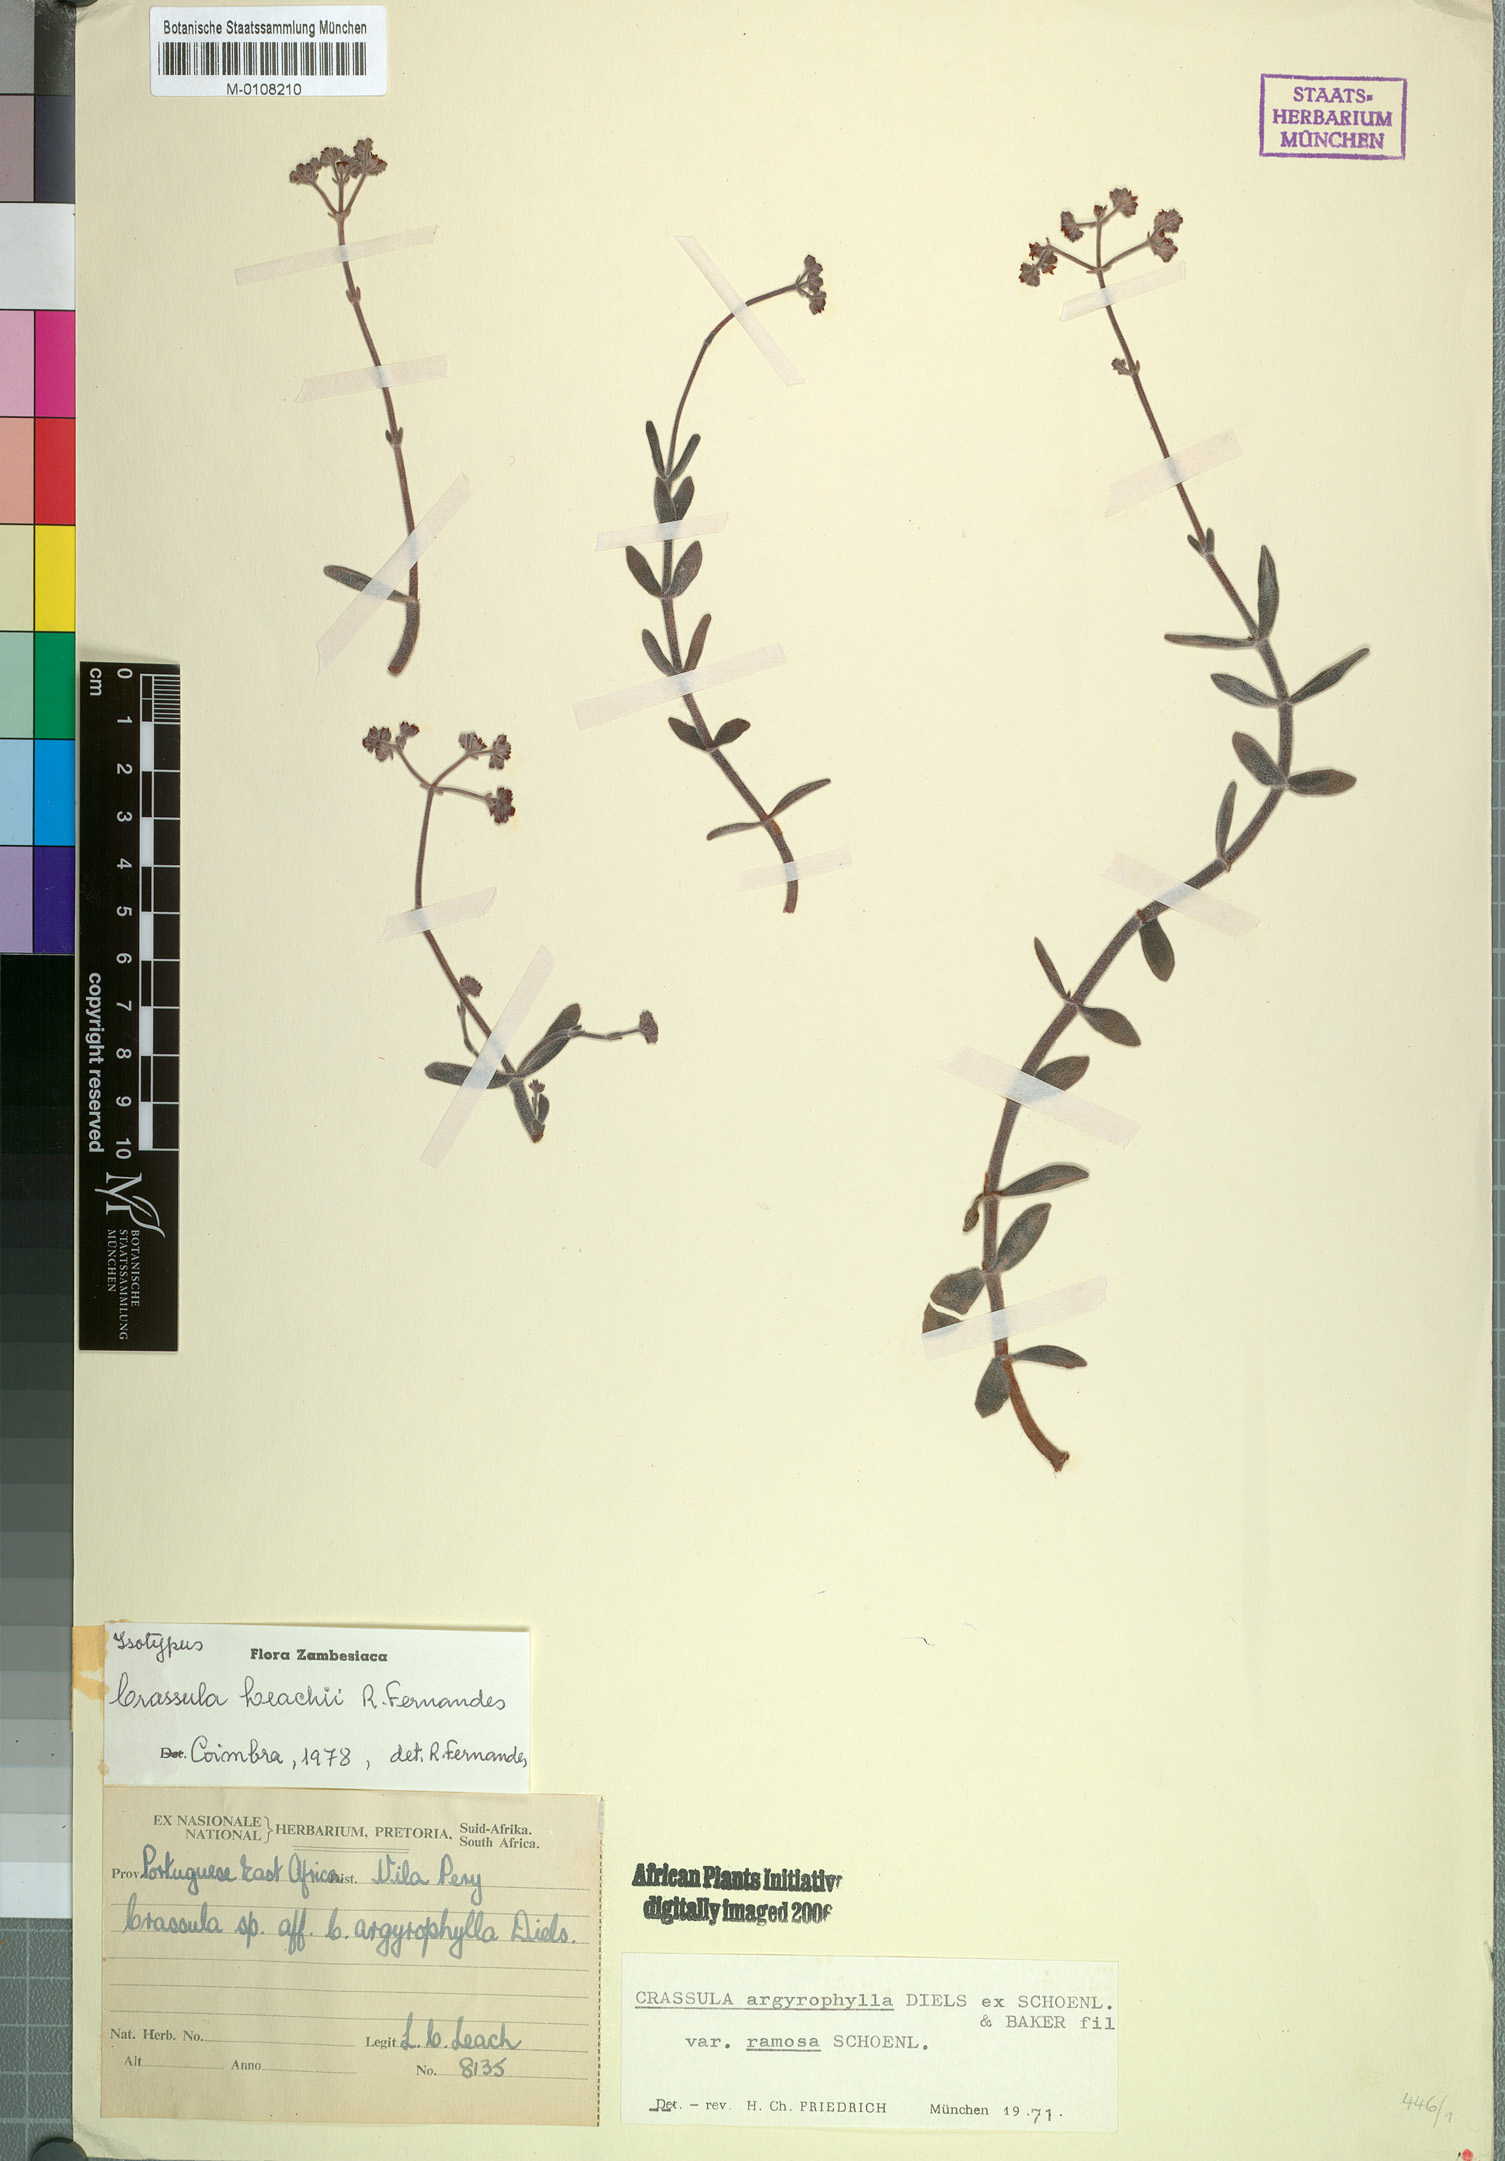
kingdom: Plantae
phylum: Tracheophyta
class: Magnoliopsida
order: Saxifragales
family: Crassulaceae
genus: Crassula
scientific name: Crassula leachii
